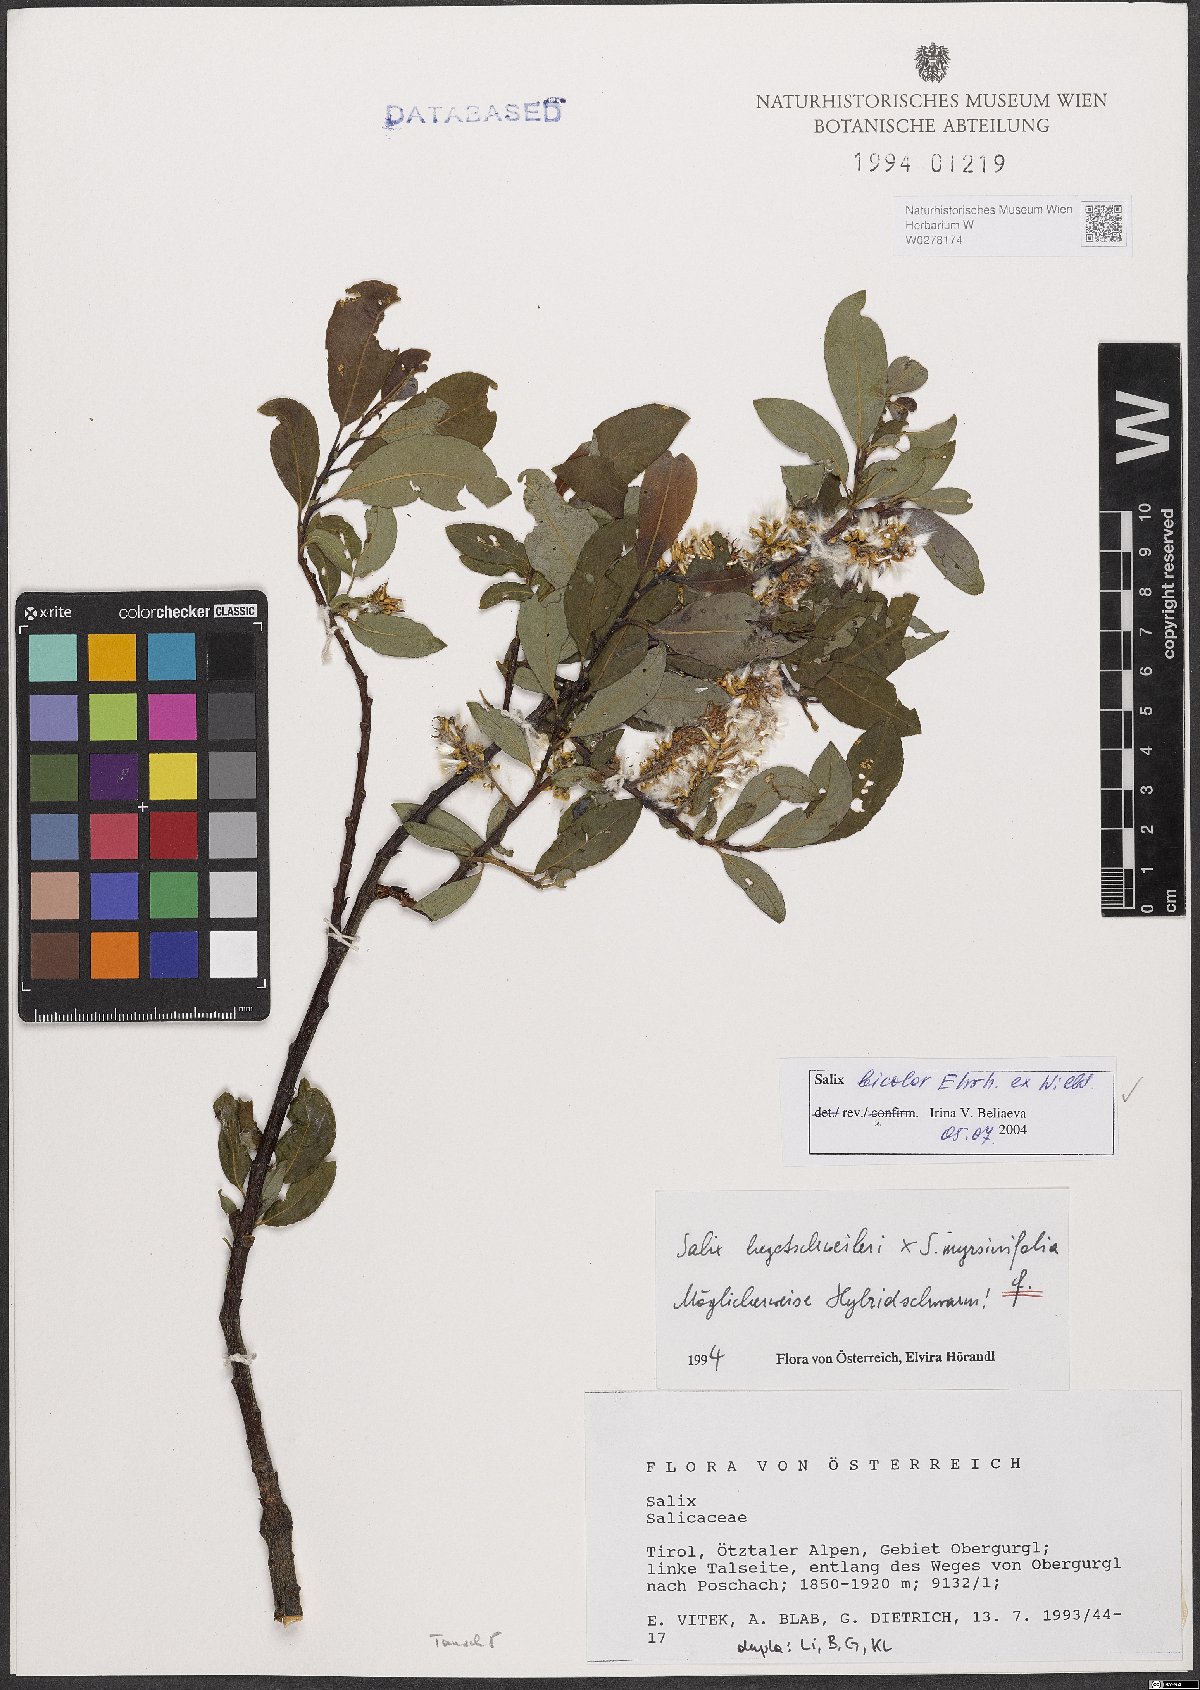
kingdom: Plantae
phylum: Tracheophyta
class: Magnoliopsida
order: Malpighiales
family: Salicaceae
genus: Salix
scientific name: Salix bicolor
